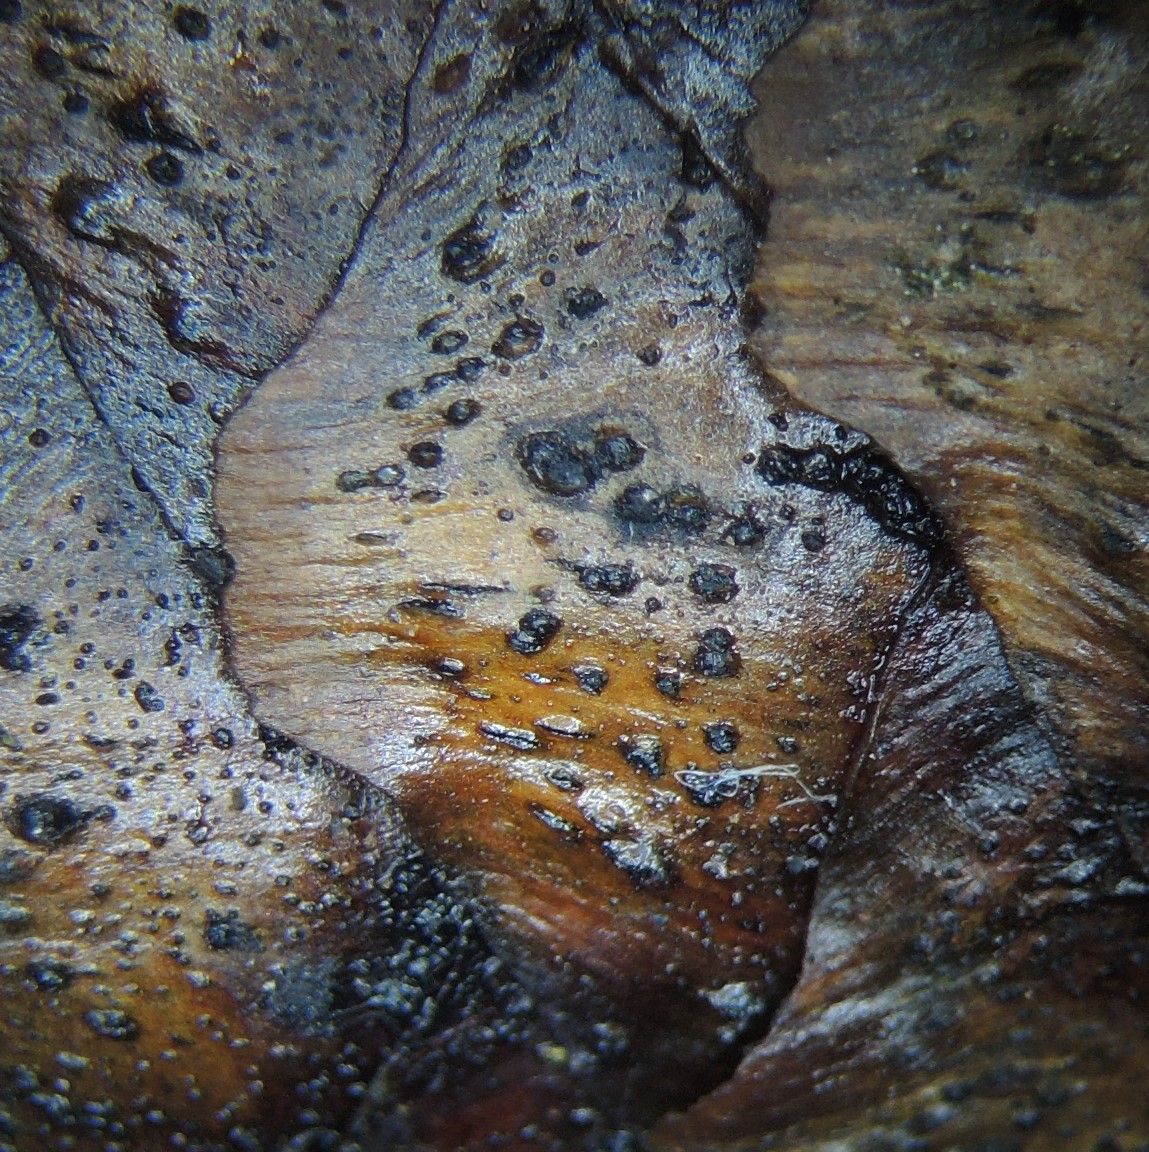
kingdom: Fungi
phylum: Ascomycota
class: Dothideomycetes
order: Botryosphaeriales
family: Botryosphaeriaceae
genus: Sphaeropsis
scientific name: Sphaeropsis sapinea
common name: Sphaeropsis blight
